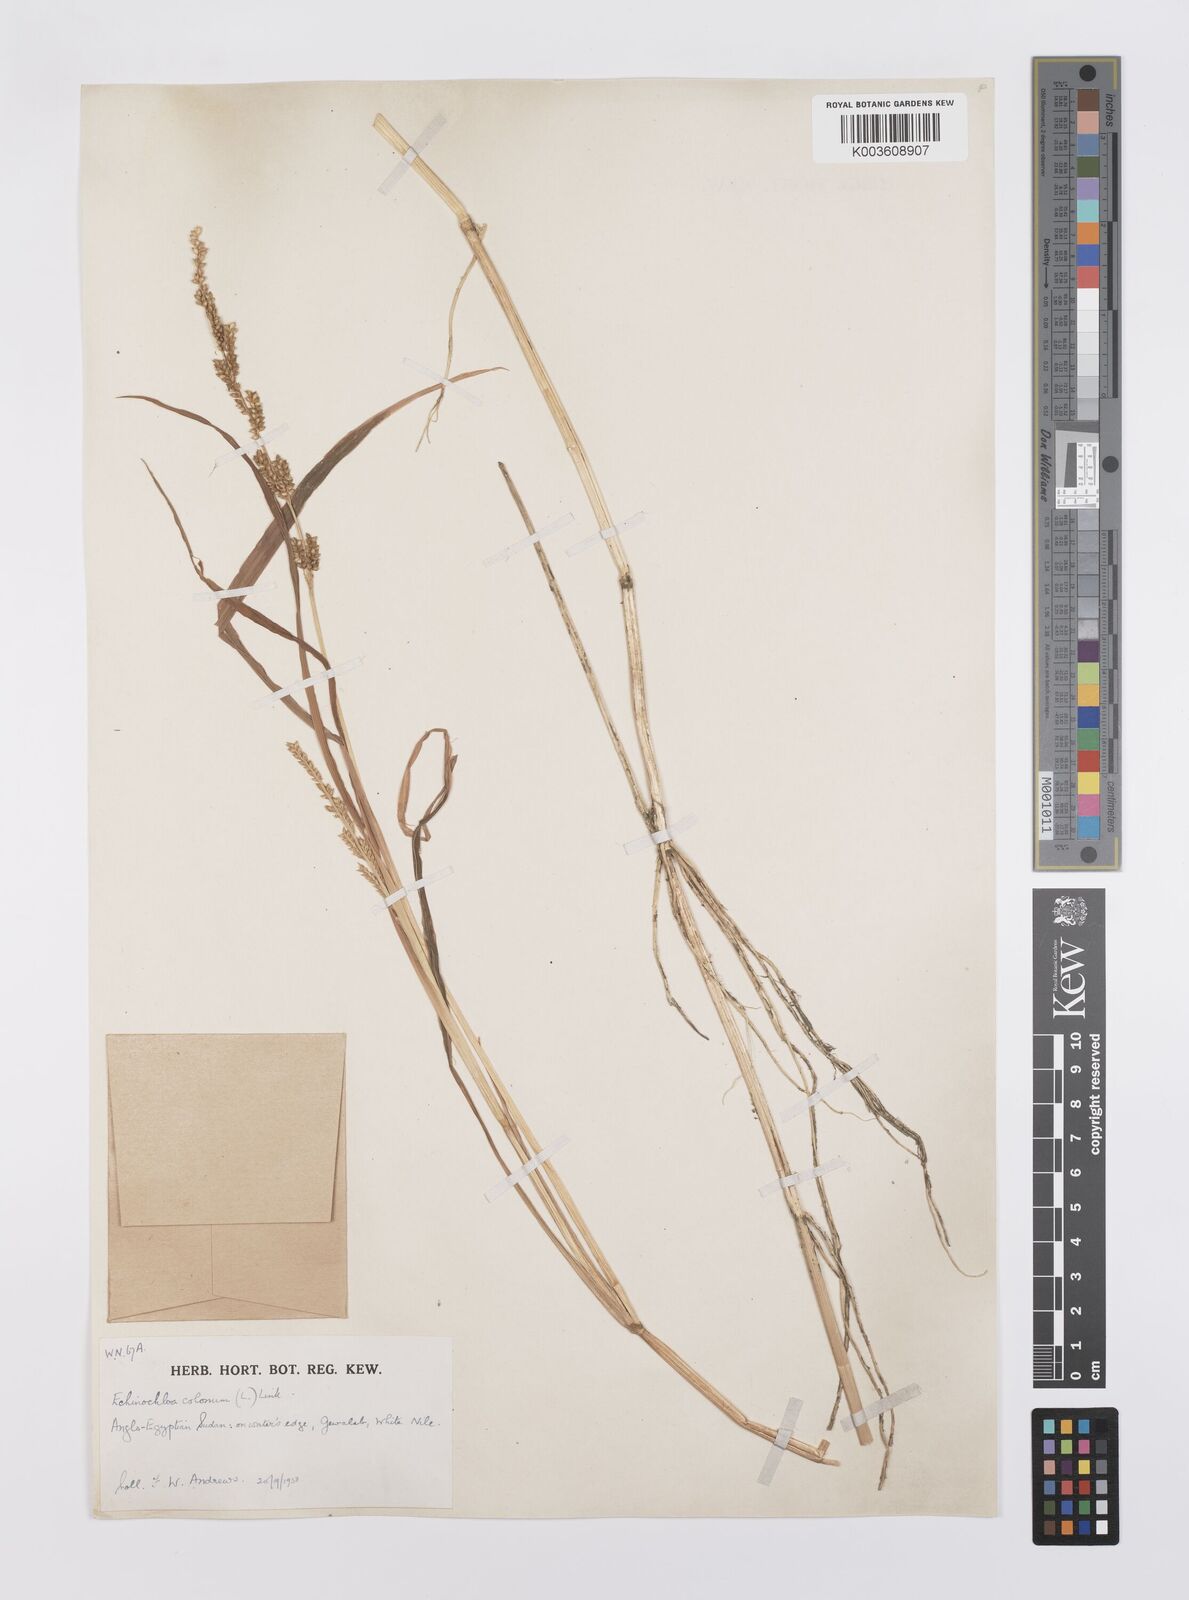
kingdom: Plantae
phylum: Tracheophyta
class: Liliopsida
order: Poales
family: Poaceae
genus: Echinochloa
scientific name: Echinochloa colonum
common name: Jungle rice
